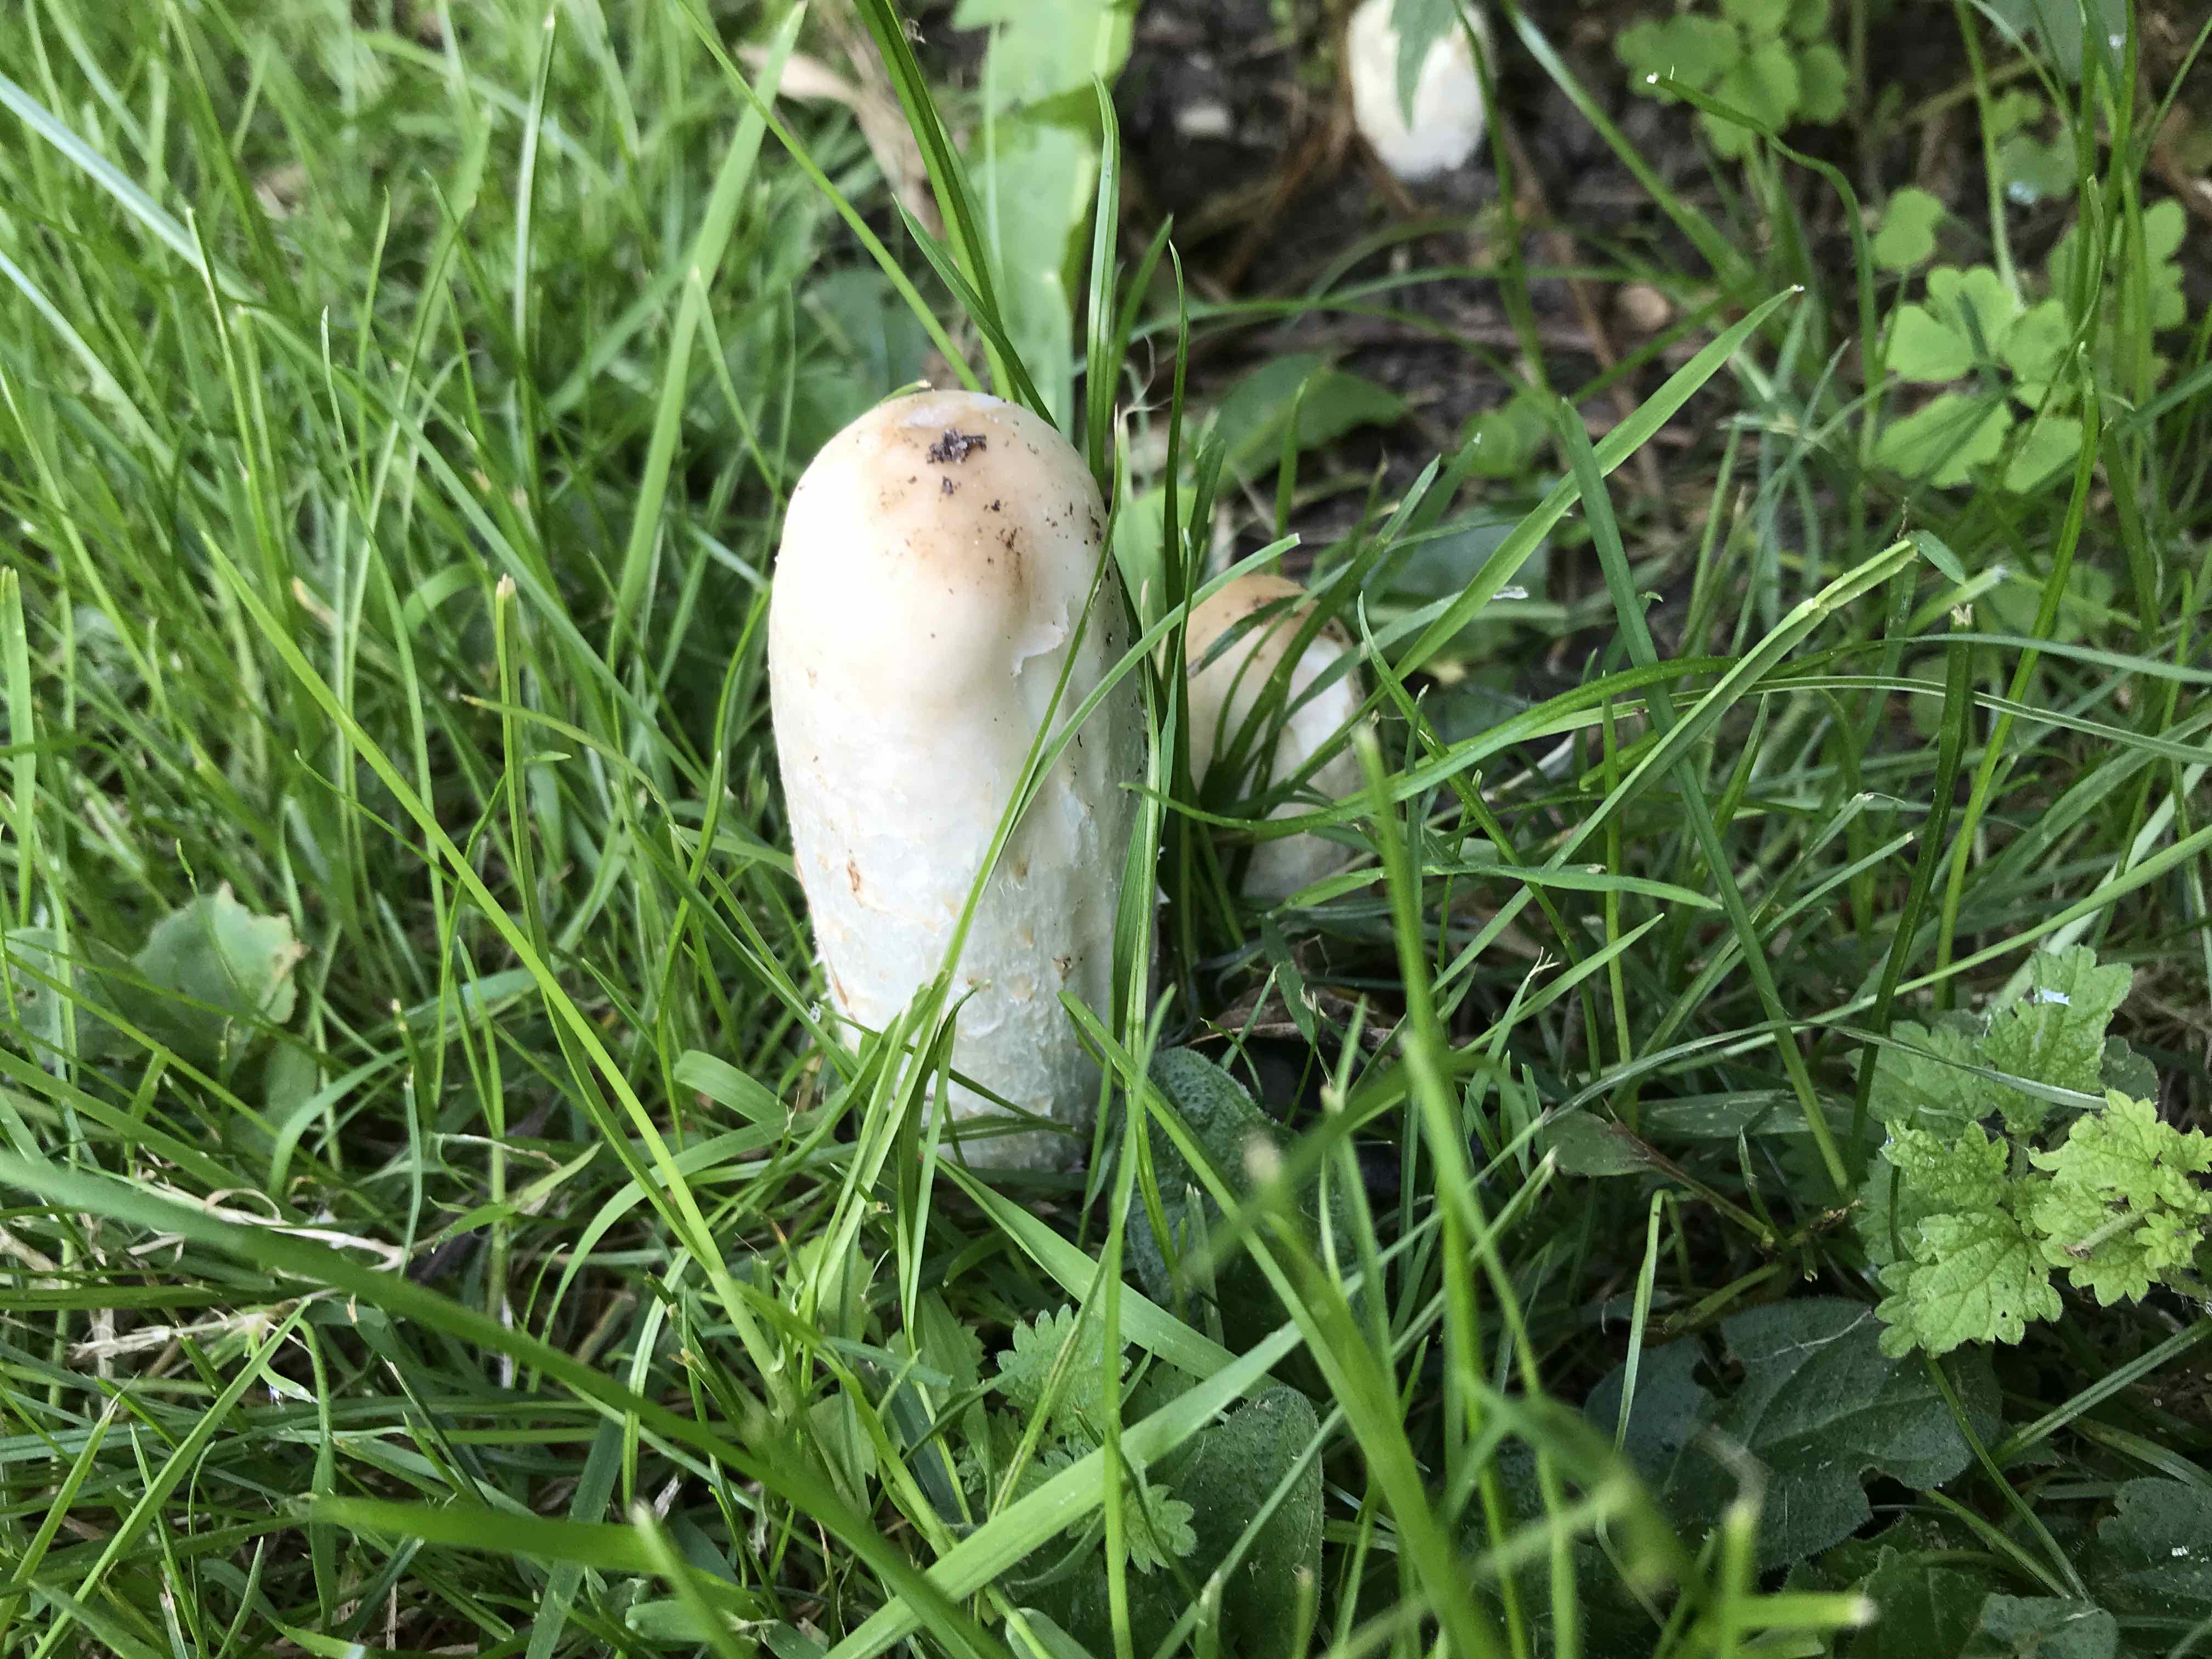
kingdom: Fungi
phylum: Basidiomycota
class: Agaricomycetes
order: Agaricales
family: Agaricaceae
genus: Coprinus
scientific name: Coprinus comatus
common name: stor parykhat
